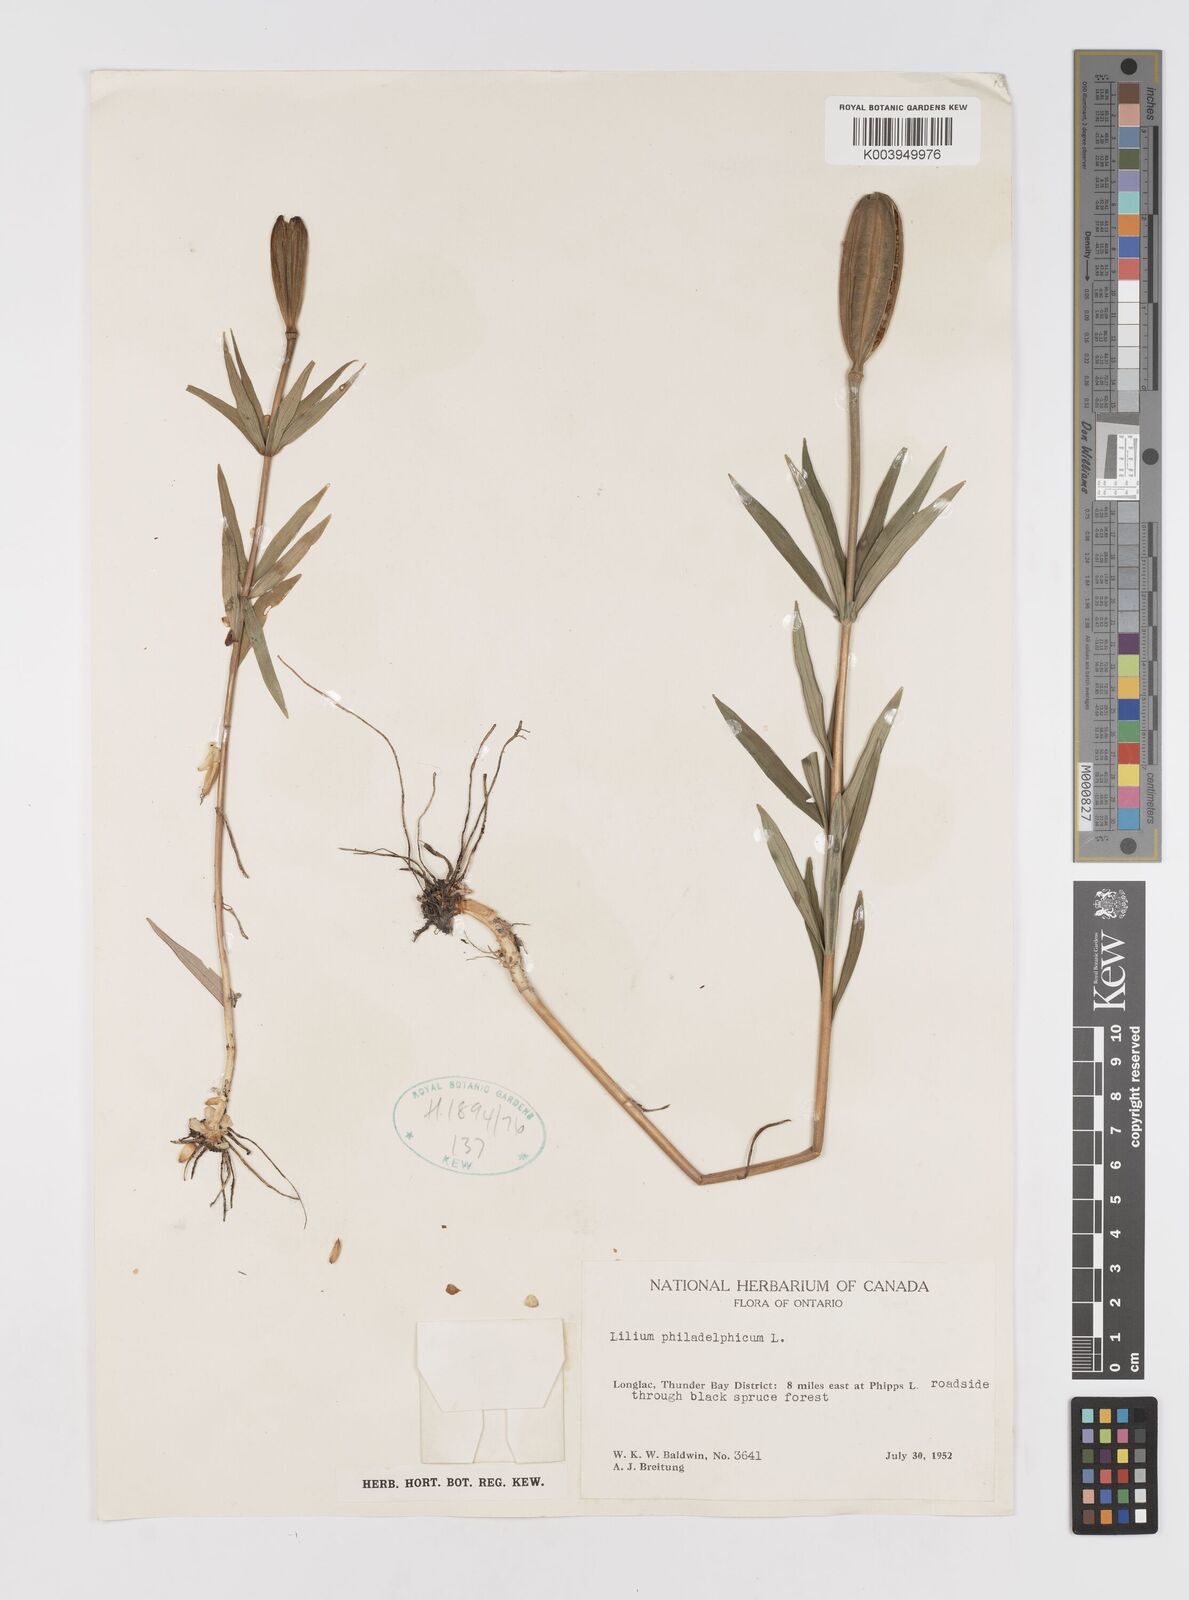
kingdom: Plantae
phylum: Tracheophyta
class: Liliopsida
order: Liliales
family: Liliaceae
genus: Lilium
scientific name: Lilium philadelphicum
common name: Red lily
